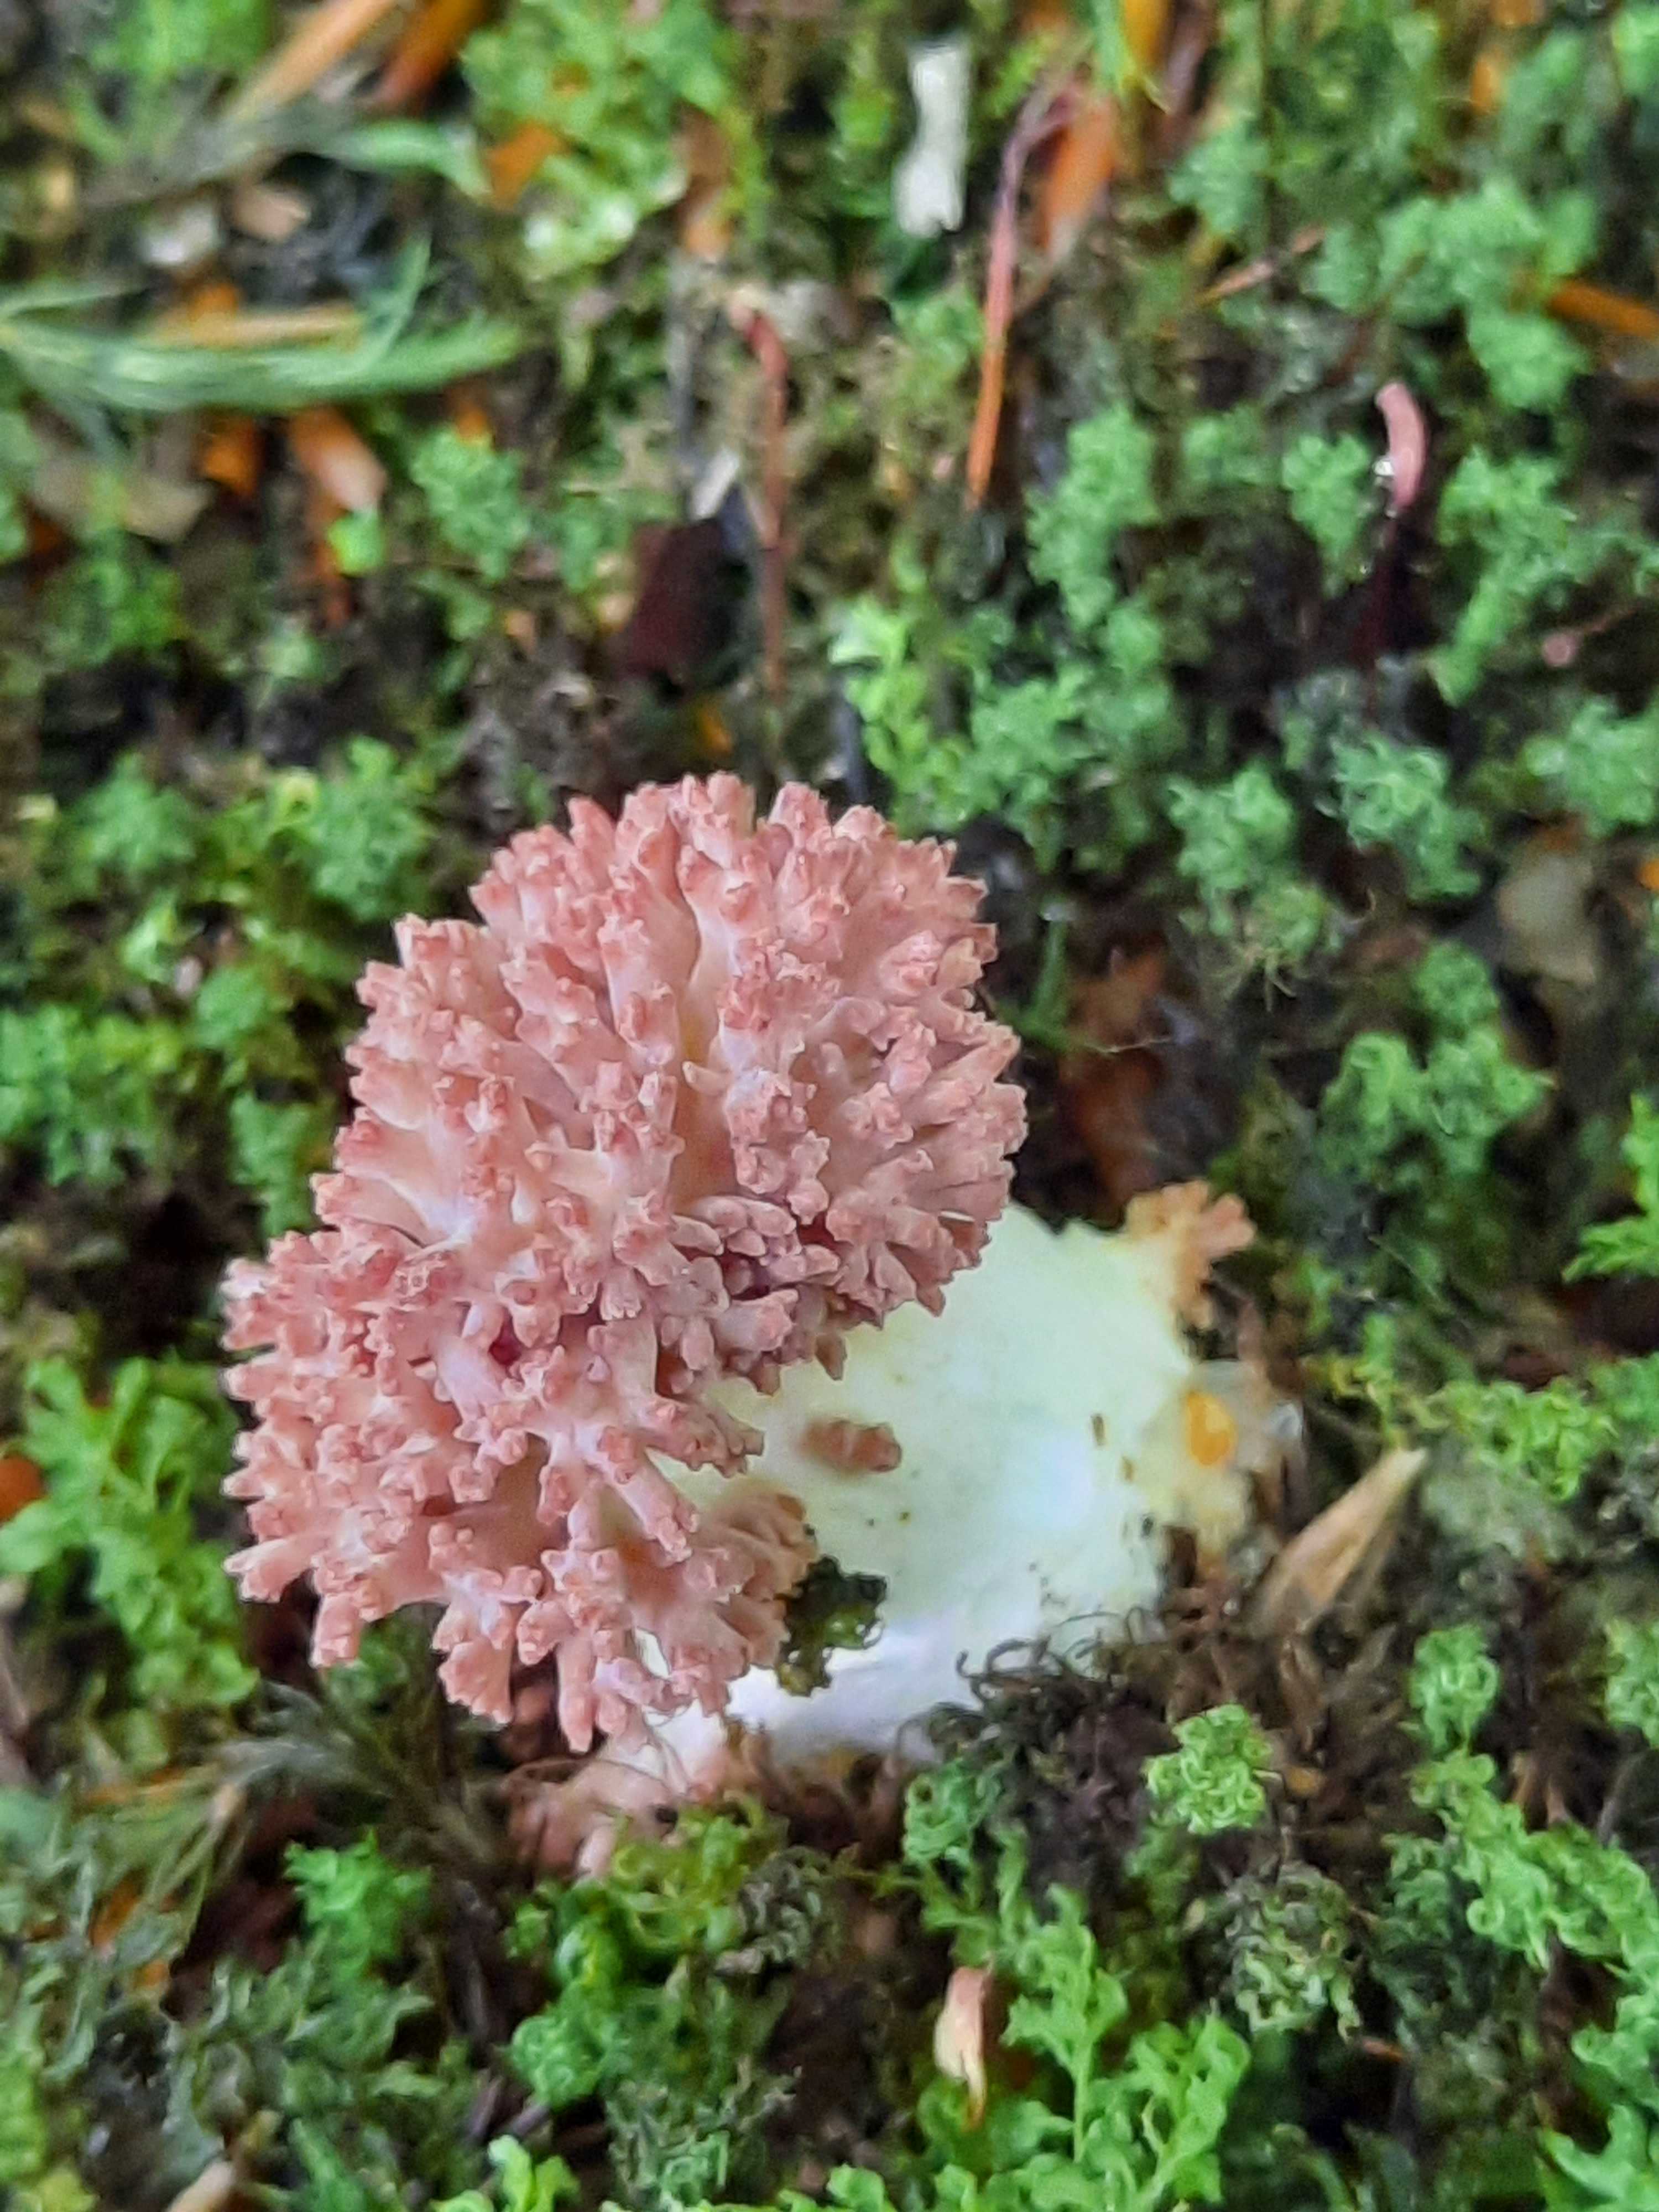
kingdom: Fungi
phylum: Basidiomycota
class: Agaricomycetes
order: Gomphales
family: Gomphaceae
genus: Ramaria
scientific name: Ramaria botrytis
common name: drue-koralsvamp
